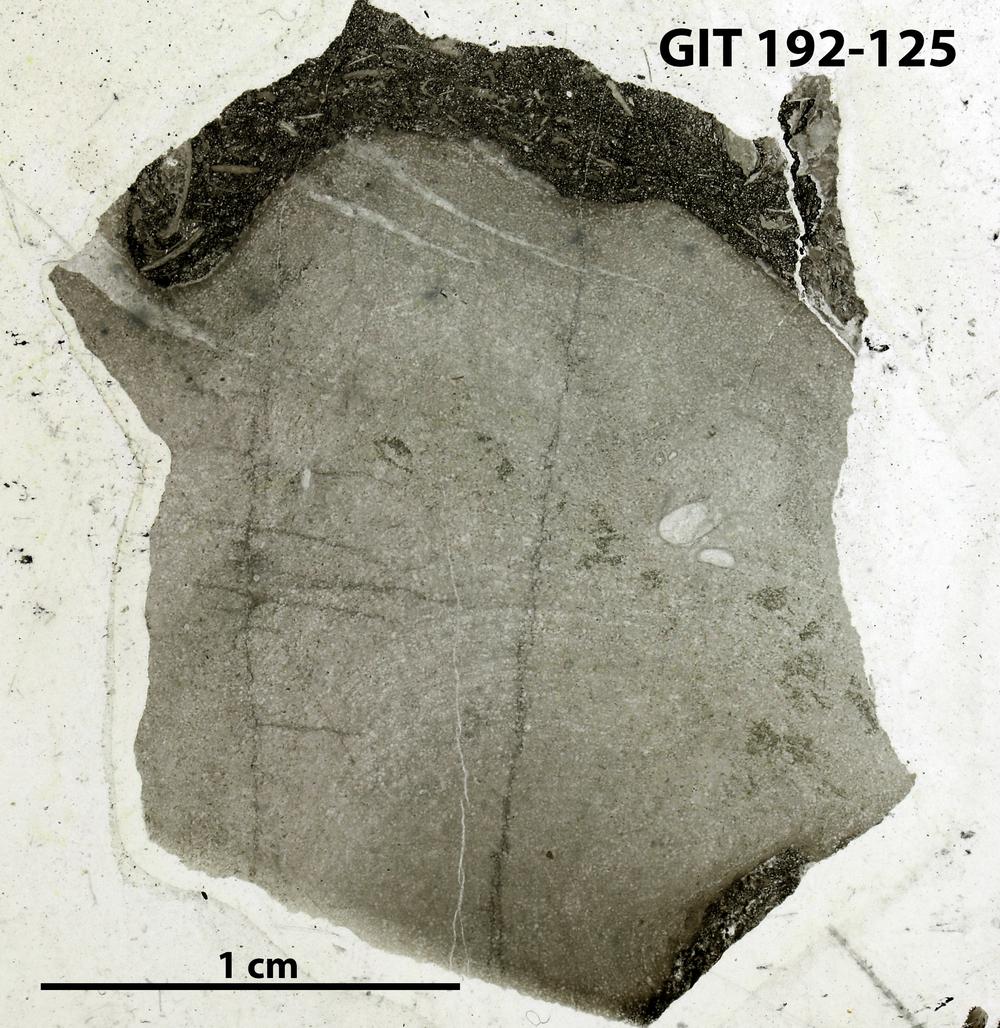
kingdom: Animalia
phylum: Porifera
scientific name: Porifera
